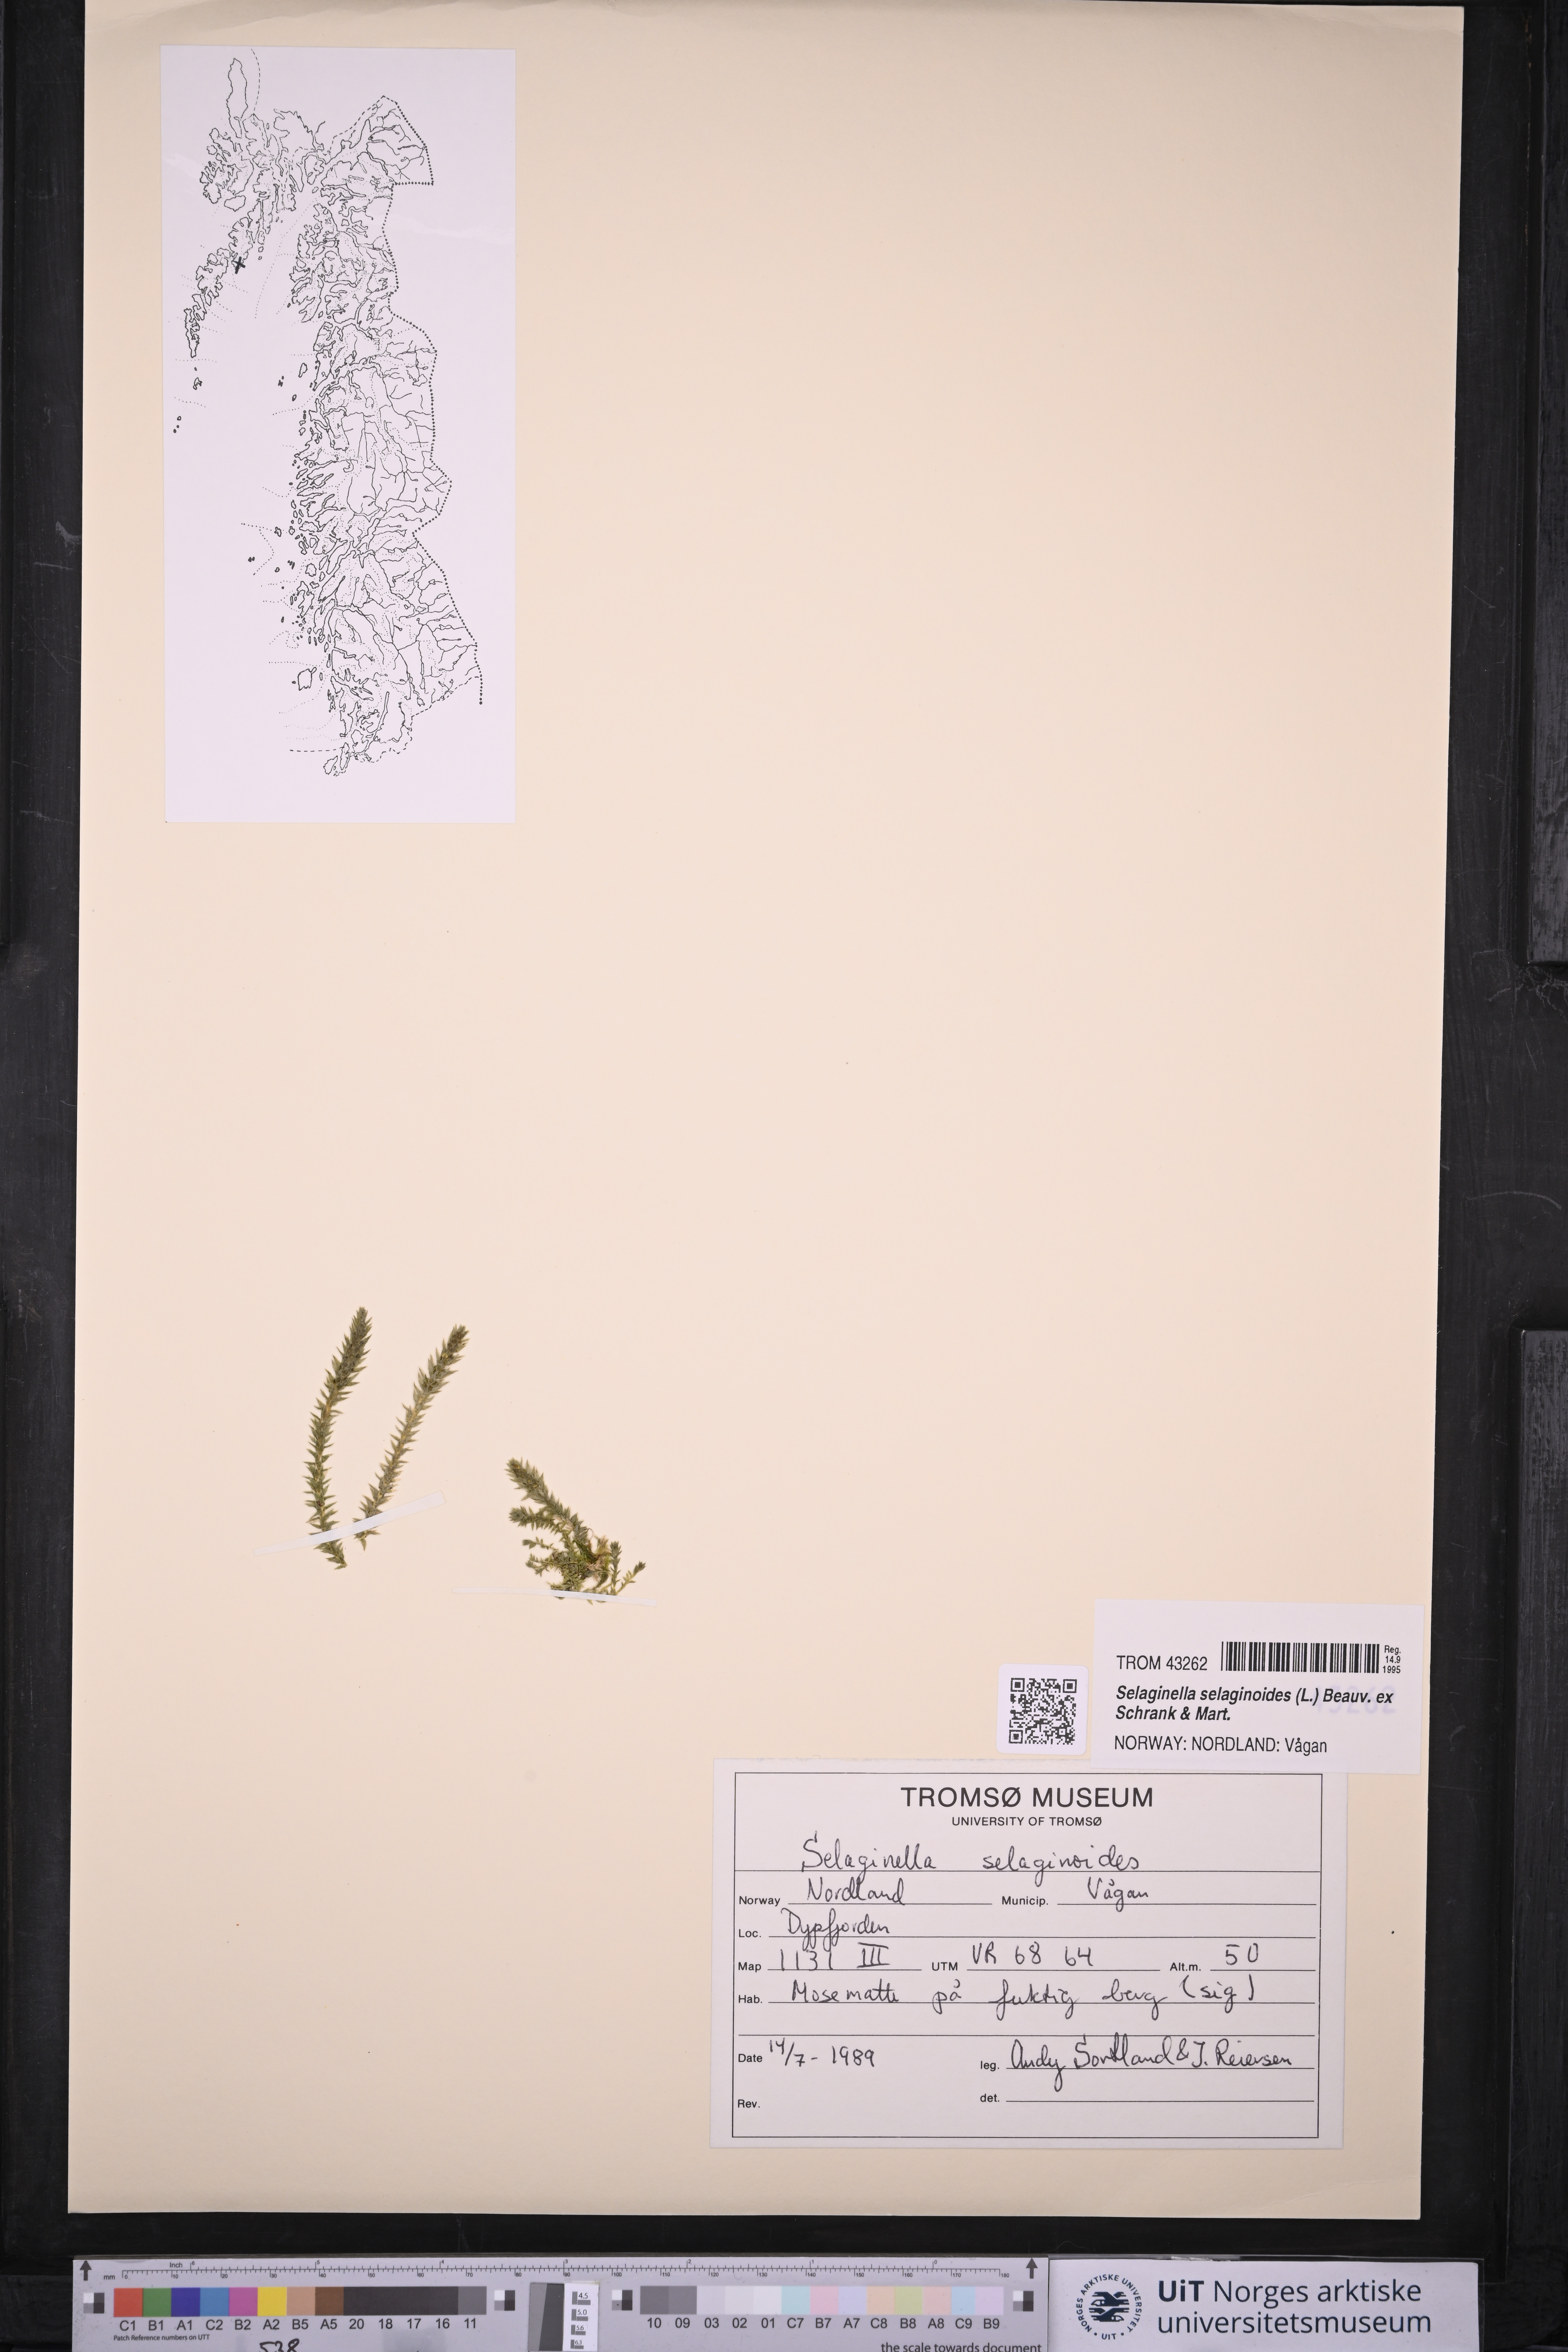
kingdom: Plantae
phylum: Tracheophyta
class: Lycopodiopsida
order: Selaginellales
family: Selaginellaceae
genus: Selaginella
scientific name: Selaginella selaginoides
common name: Prickly mountain-moss
